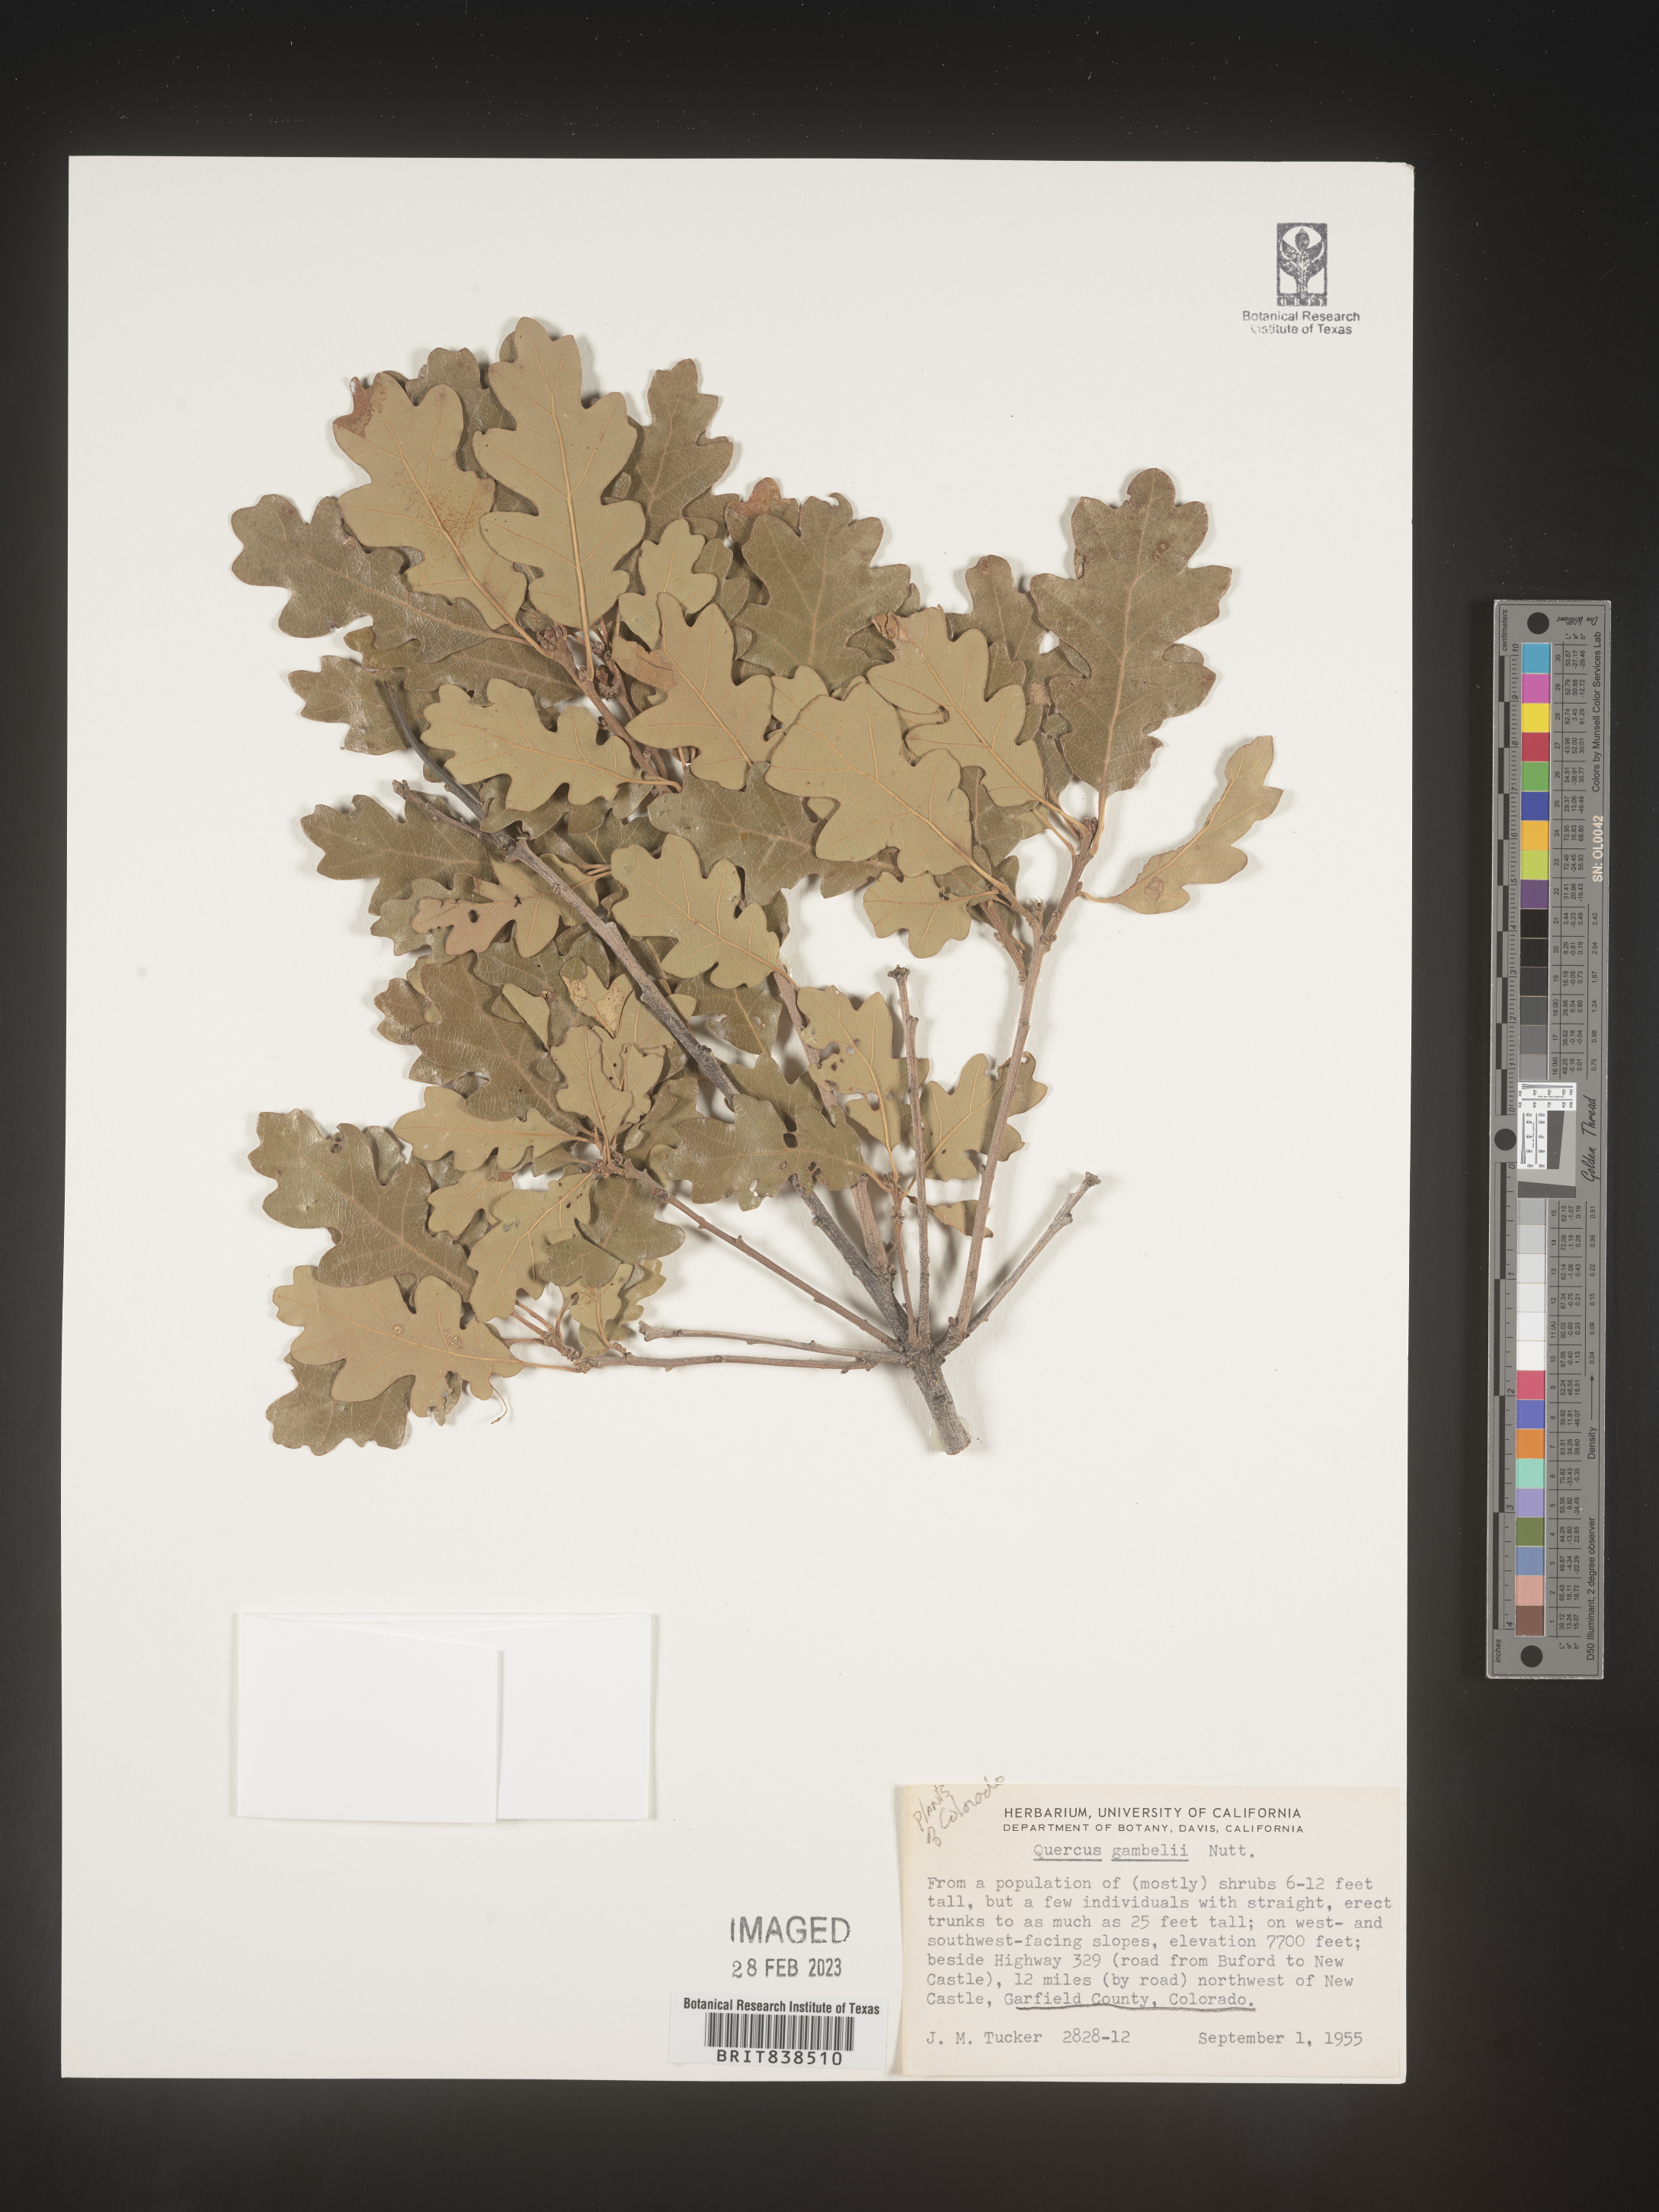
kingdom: Plantae
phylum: Tracheophyta
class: Magnoliopsida
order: Fagales
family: Fagaceae
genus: Quercus
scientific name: Quercus gambelii
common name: Gambel oak
